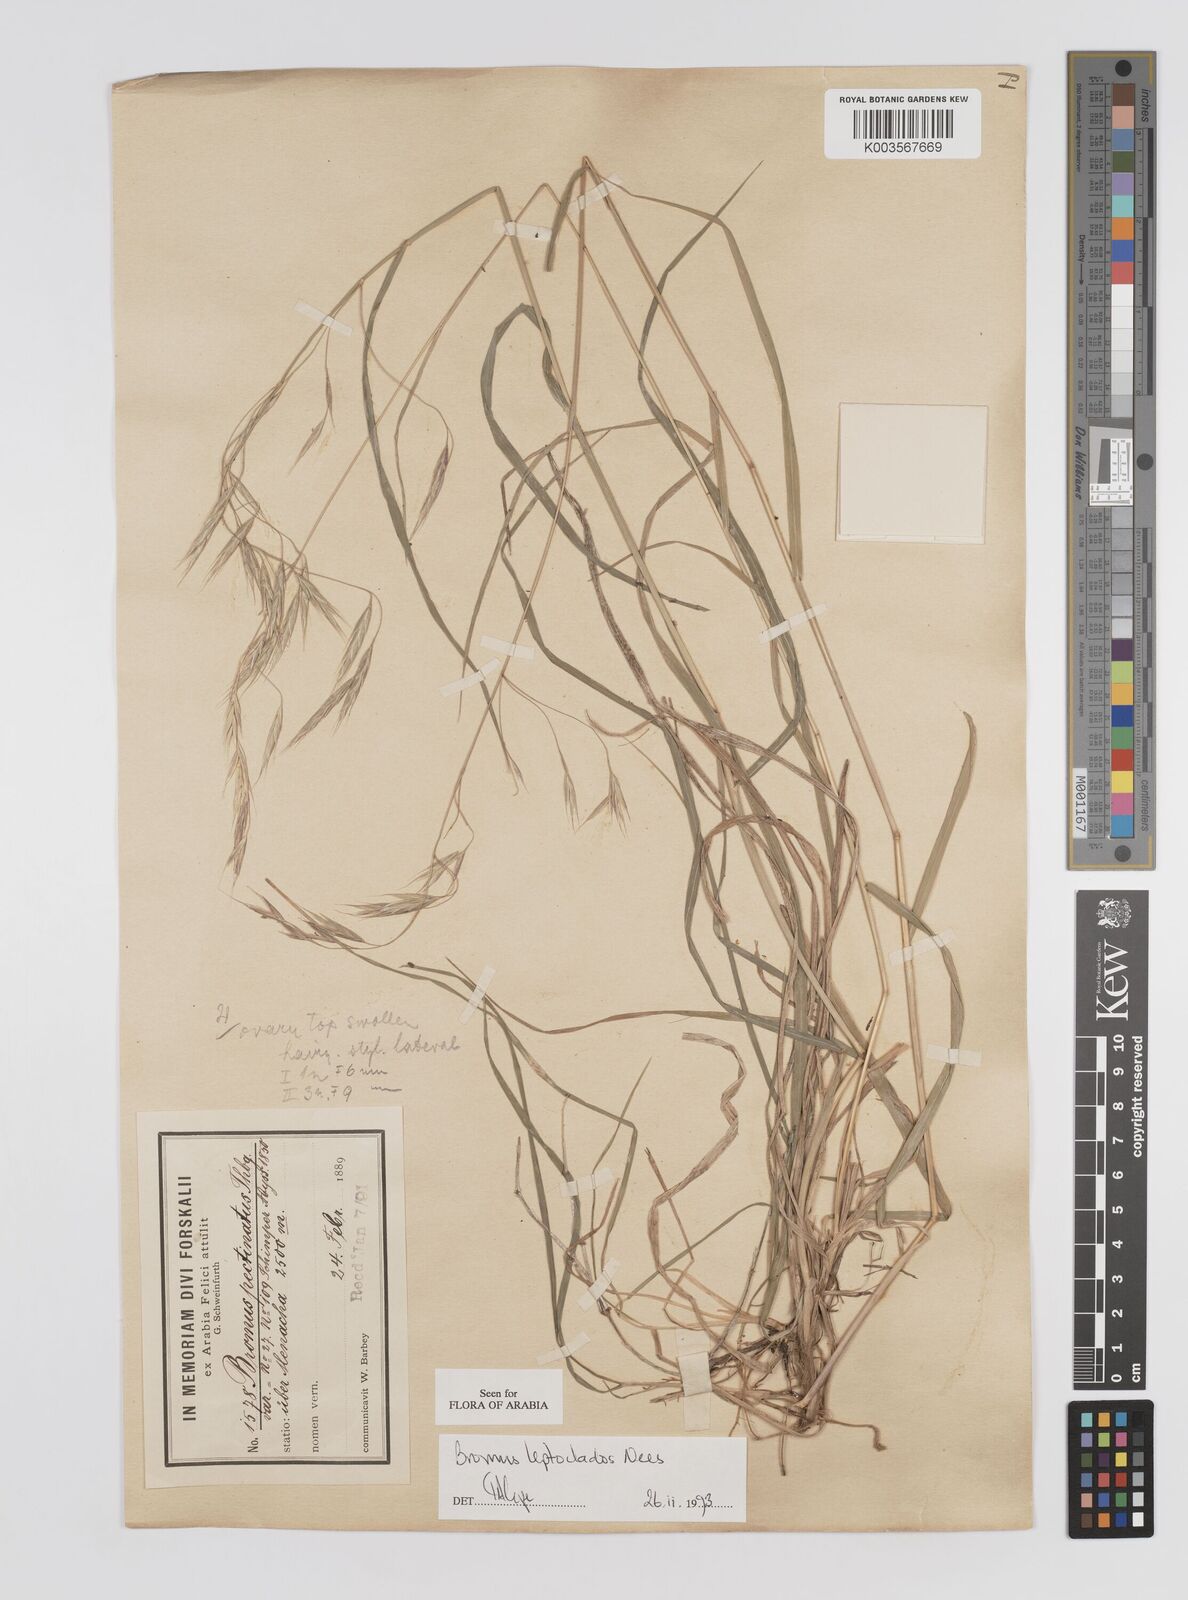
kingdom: Plantae
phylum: Tracheophyta
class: Liliopsida
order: Poales
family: Poaceae
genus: Bromus
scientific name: Bromus leptoclados
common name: Mountain bromegrass
